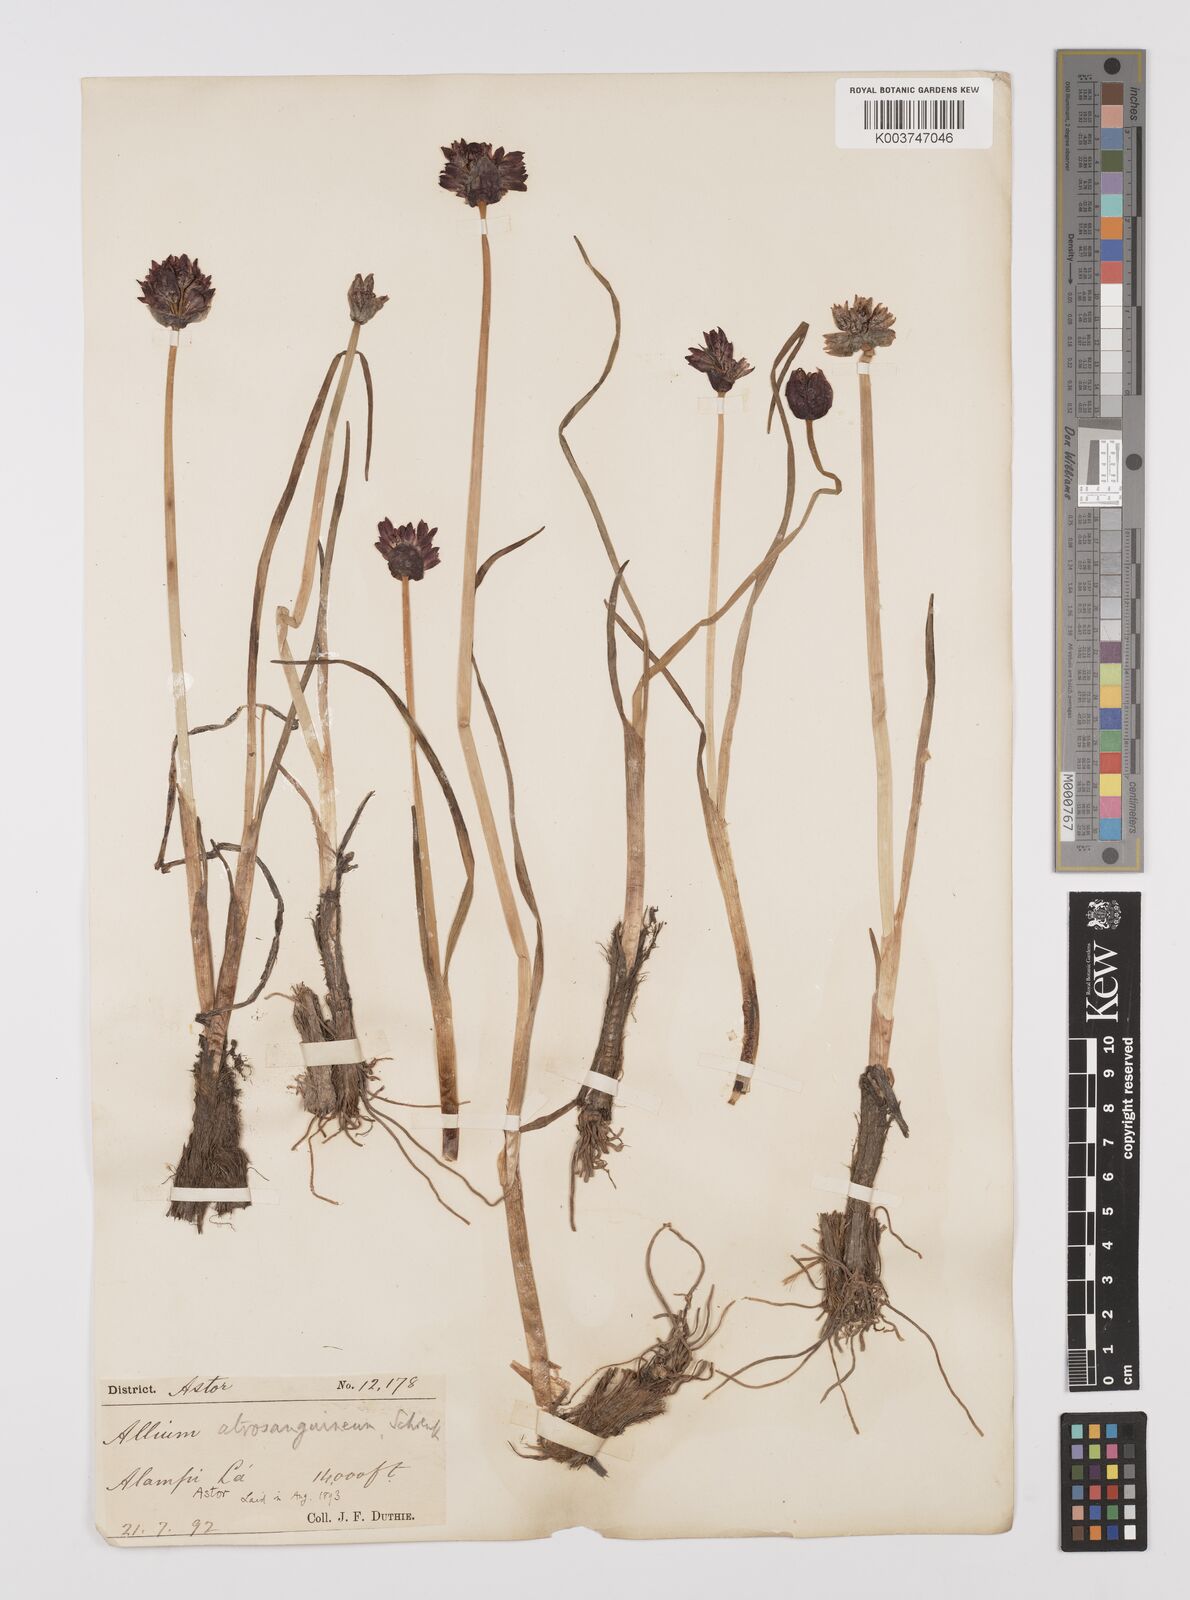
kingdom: Plantae
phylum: Tracheophyta
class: Liliopsida
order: Asparagales
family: Amaryllidaceae
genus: Allium
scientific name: Allium atrosanguineum
